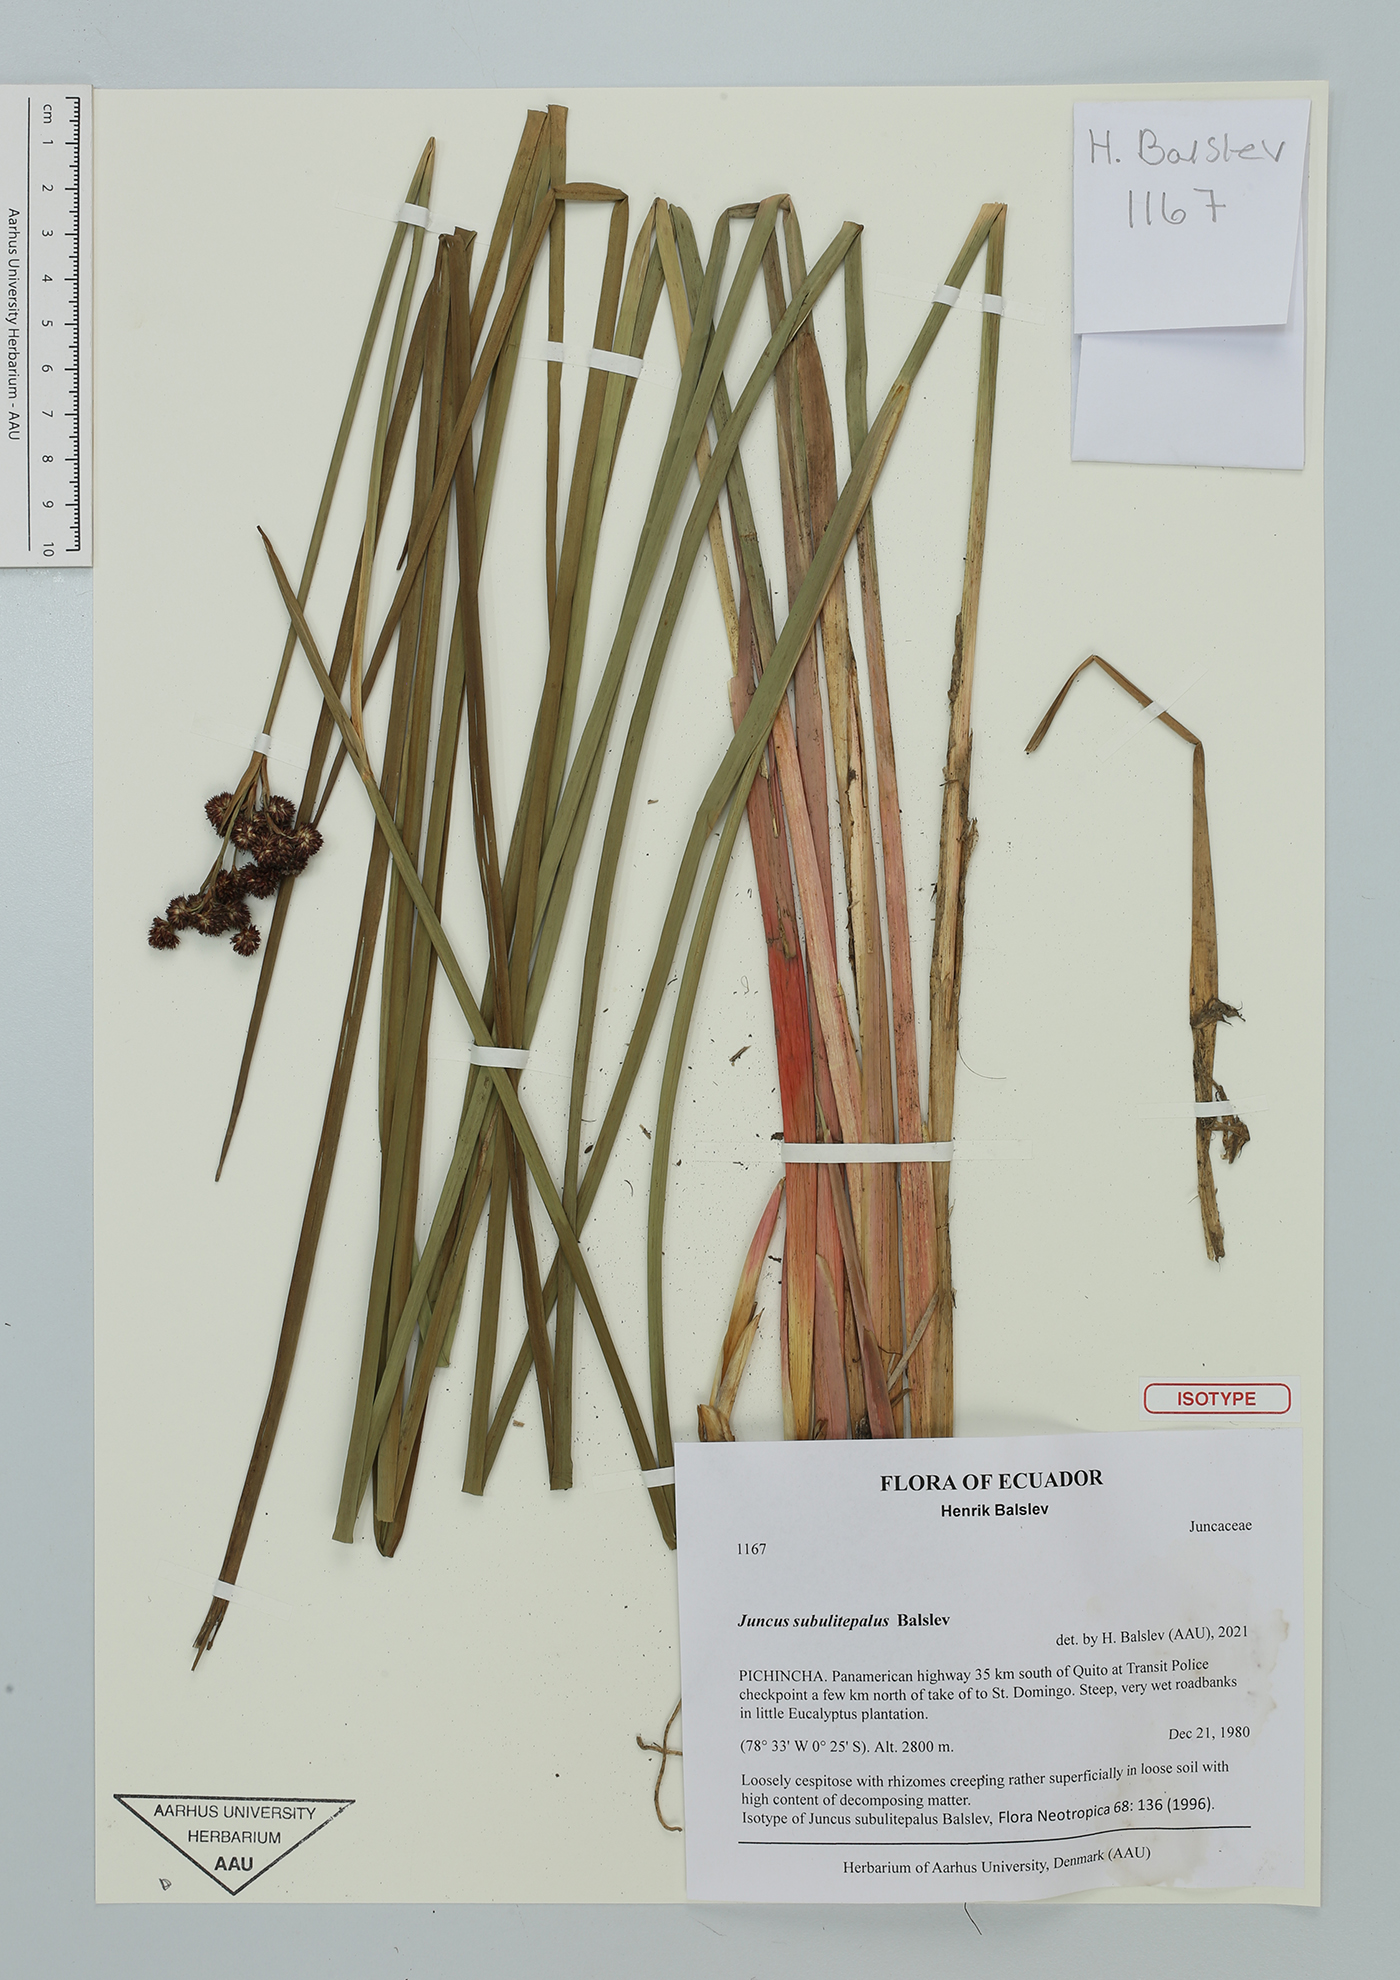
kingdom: Plantae
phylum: Tracheophyta
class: Liliopsida
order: Poales
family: Juncaceae
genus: Juncus
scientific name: Juncus subulitepalus
